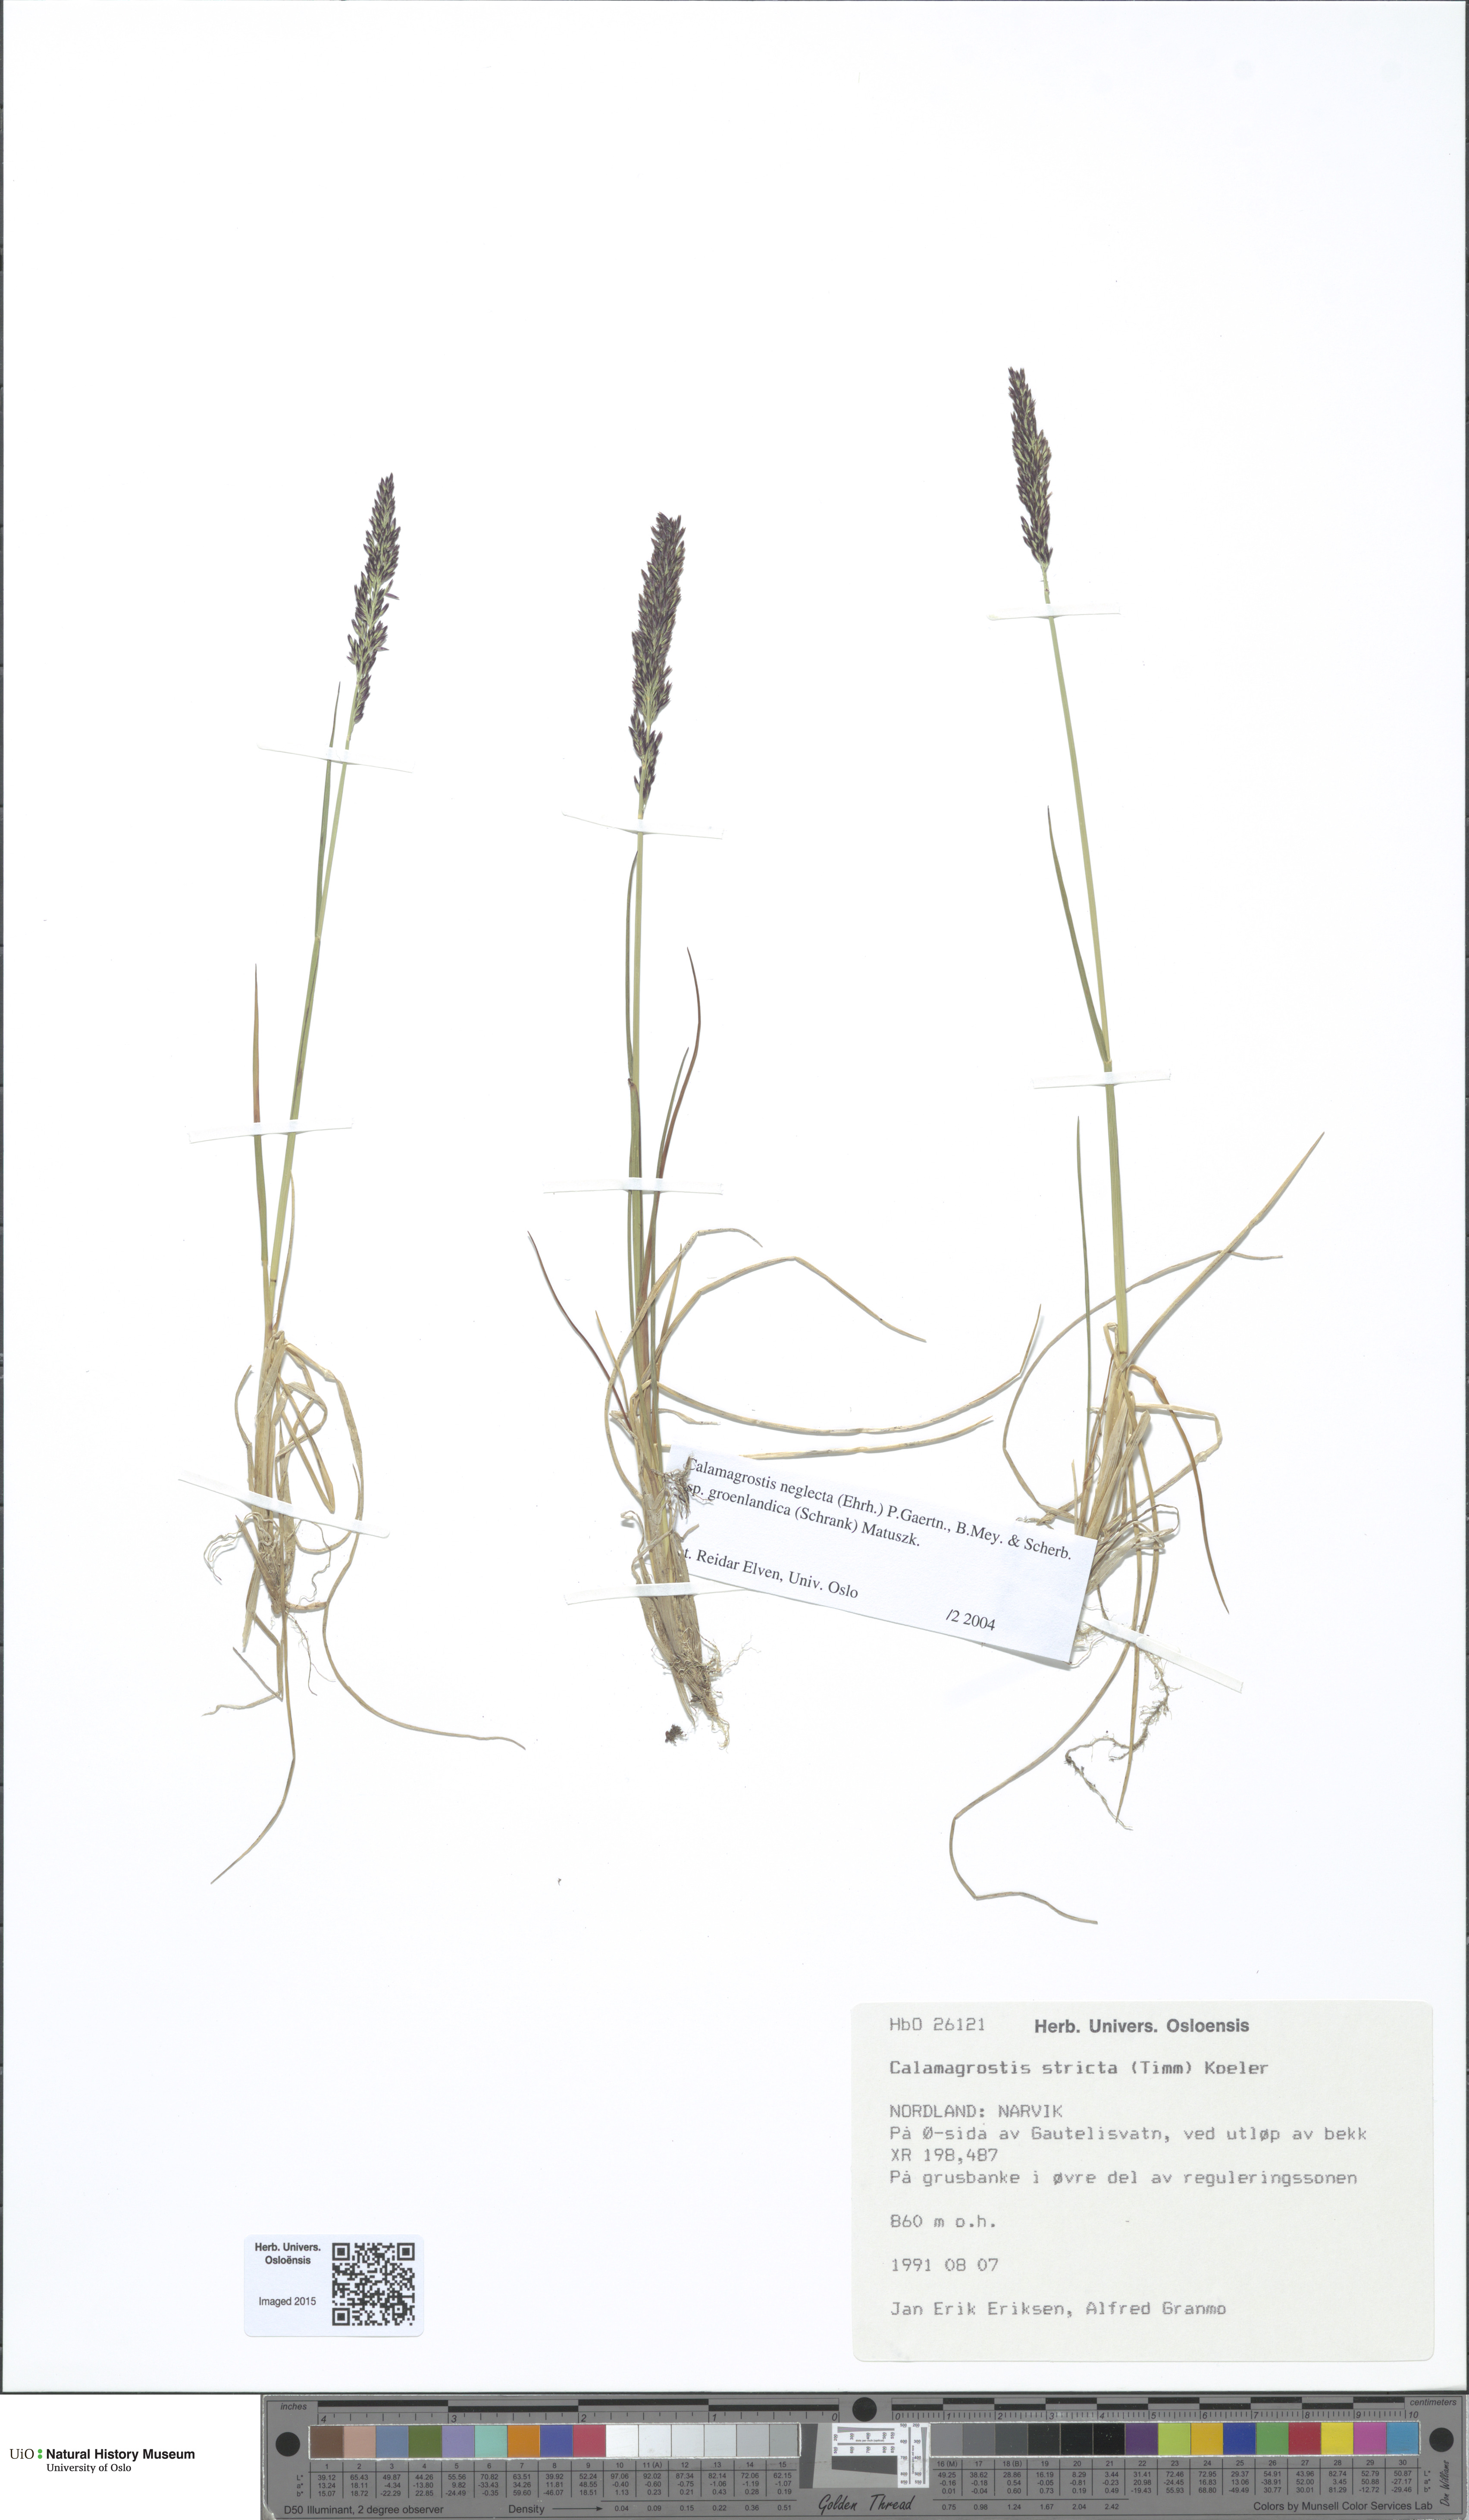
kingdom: Plantae
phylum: Tracheophyta
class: Liliopsida
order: Poales
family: Poaceae
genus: Achnatherum
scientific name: Achnatherum calamagrostis
